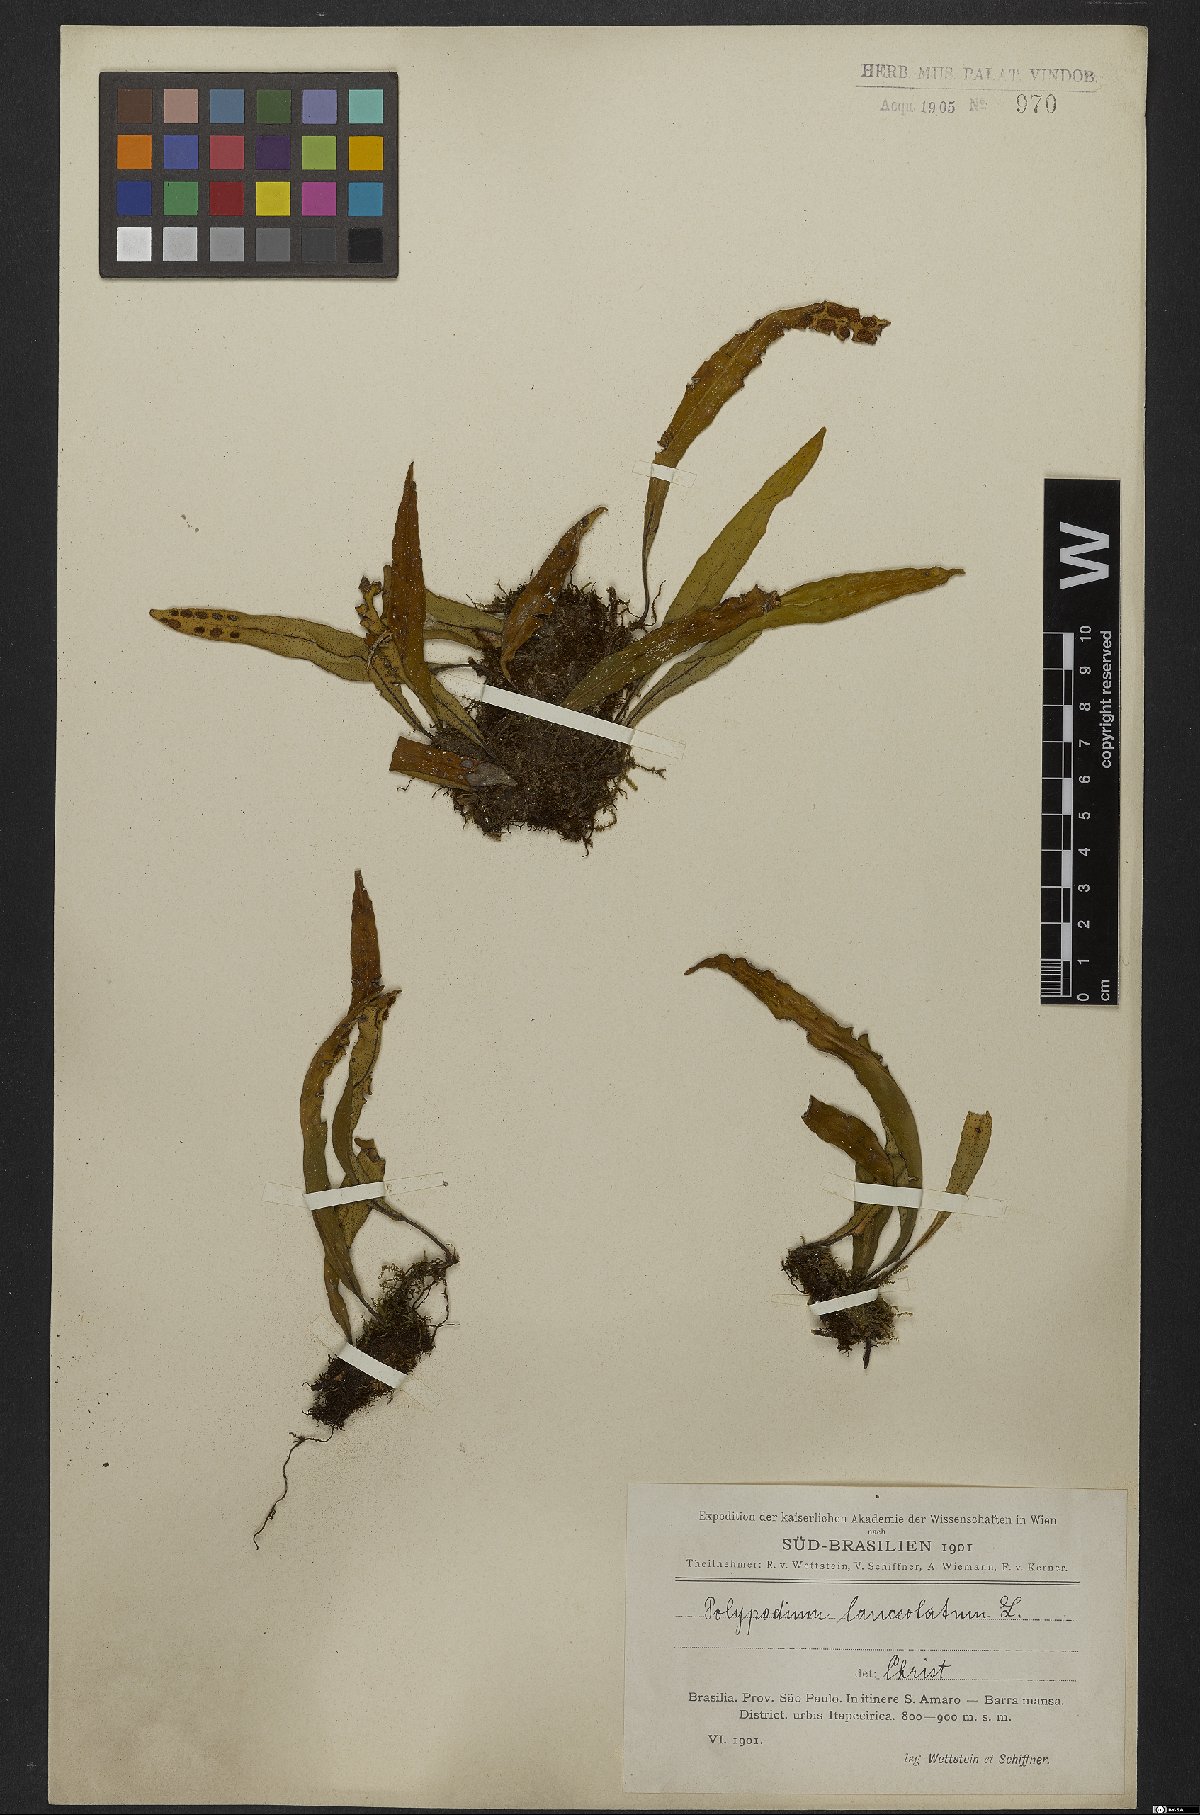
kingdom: Plantae
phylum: Tracheophyta
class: Polypodiopsida
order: Polypodiales
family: Polypodiaceae
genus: Pleopeltis
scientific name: Pleopeltis macrocarpa
